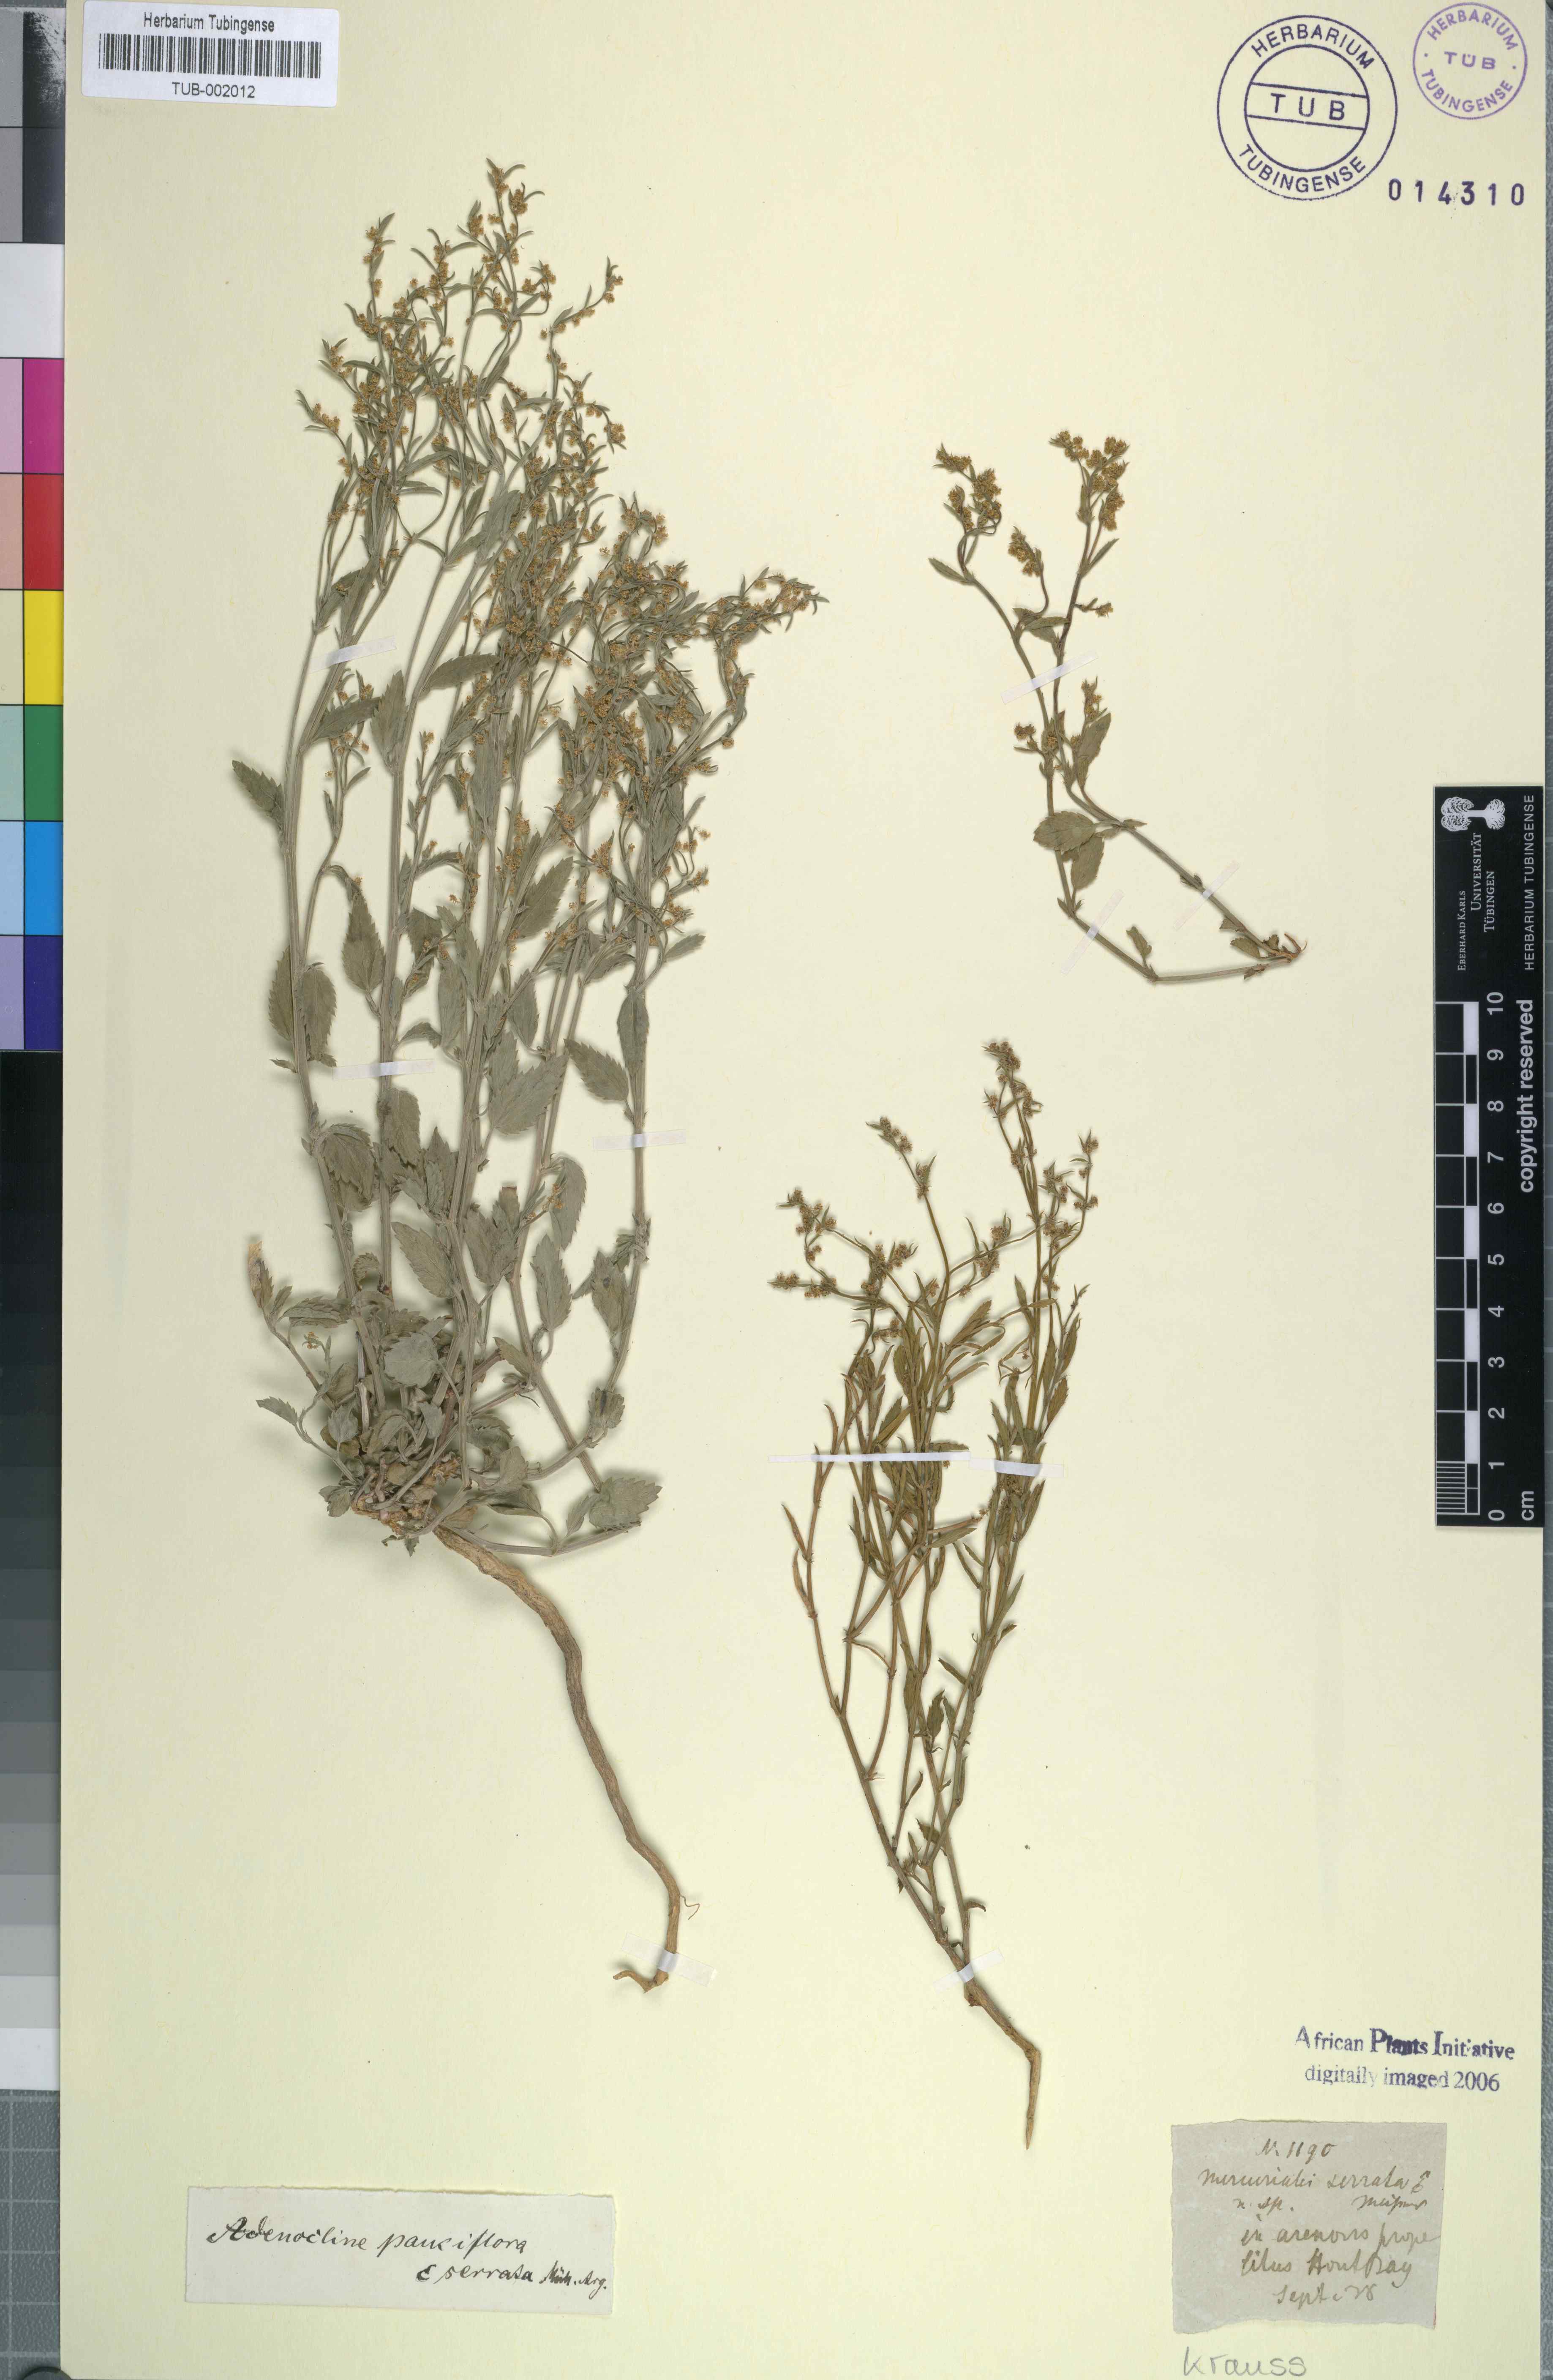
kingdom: Plantae
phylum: Tracheophyta
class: Magnoliopsida
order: Malpighiales
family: Euphorbiaceae
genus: Adenocline
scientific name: Adenocline pauciflora
